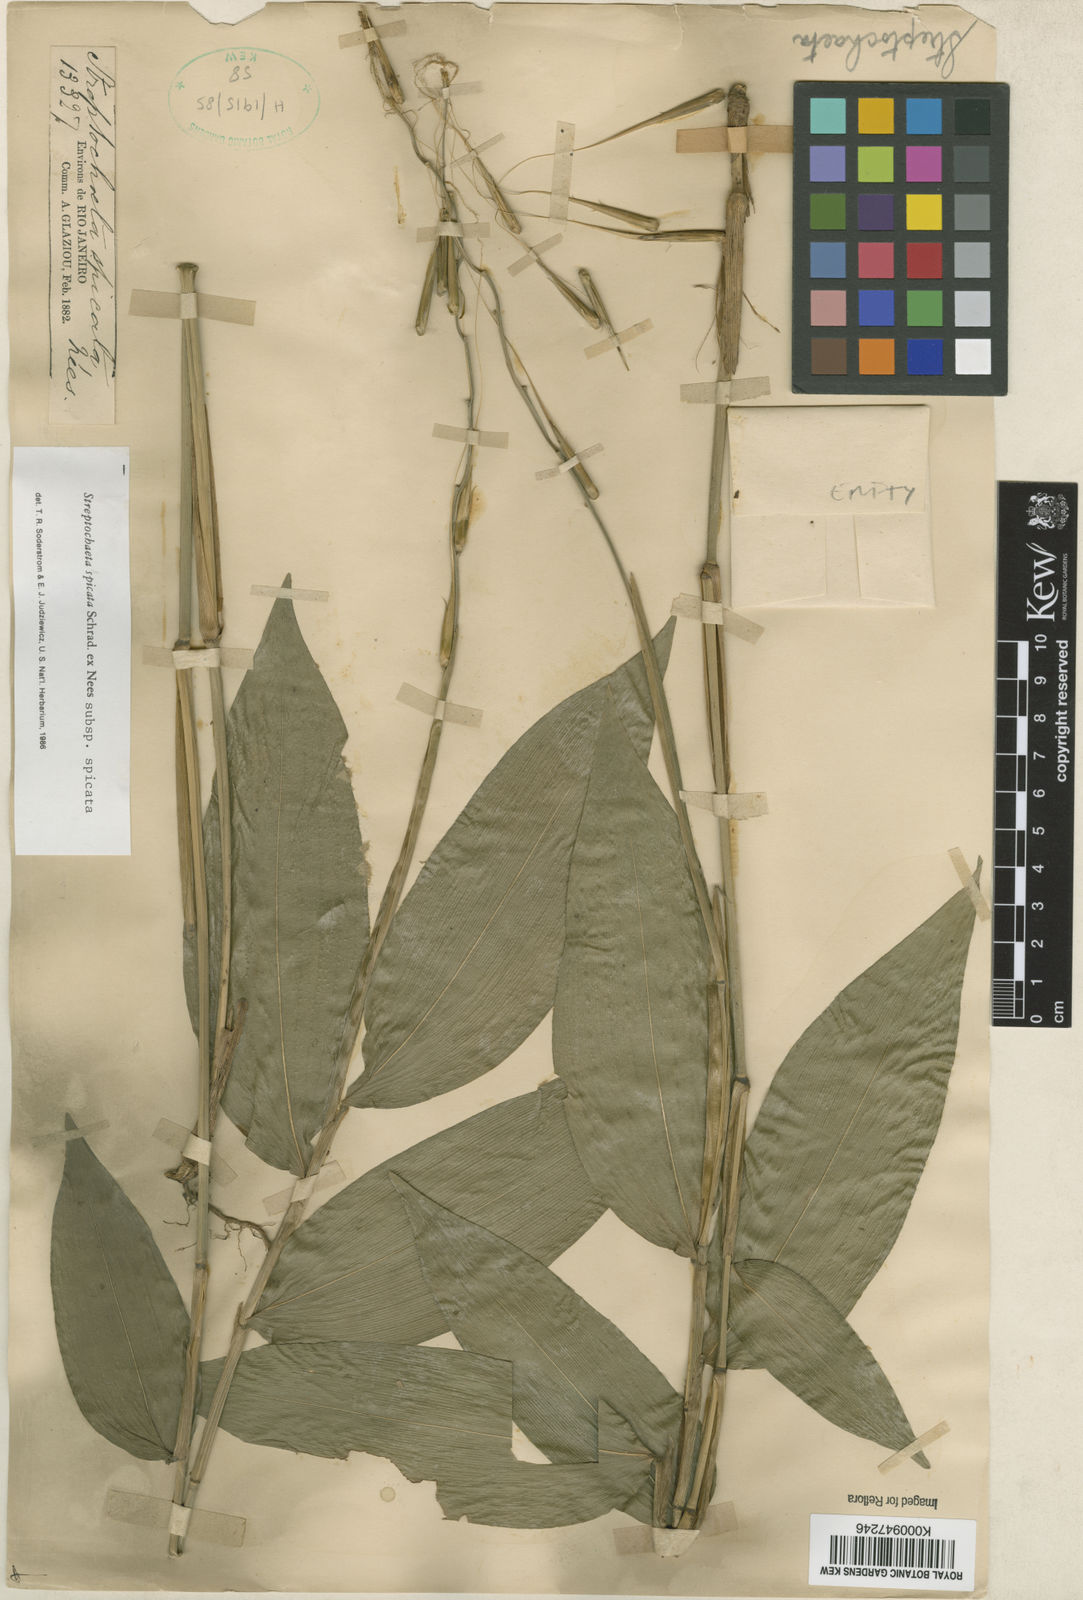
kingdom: Plantae
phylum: Tracheophyta
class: Liliopsida
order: Poales
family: Poaceae
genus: Streptochaeta
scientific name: Streptochaeta spicata
